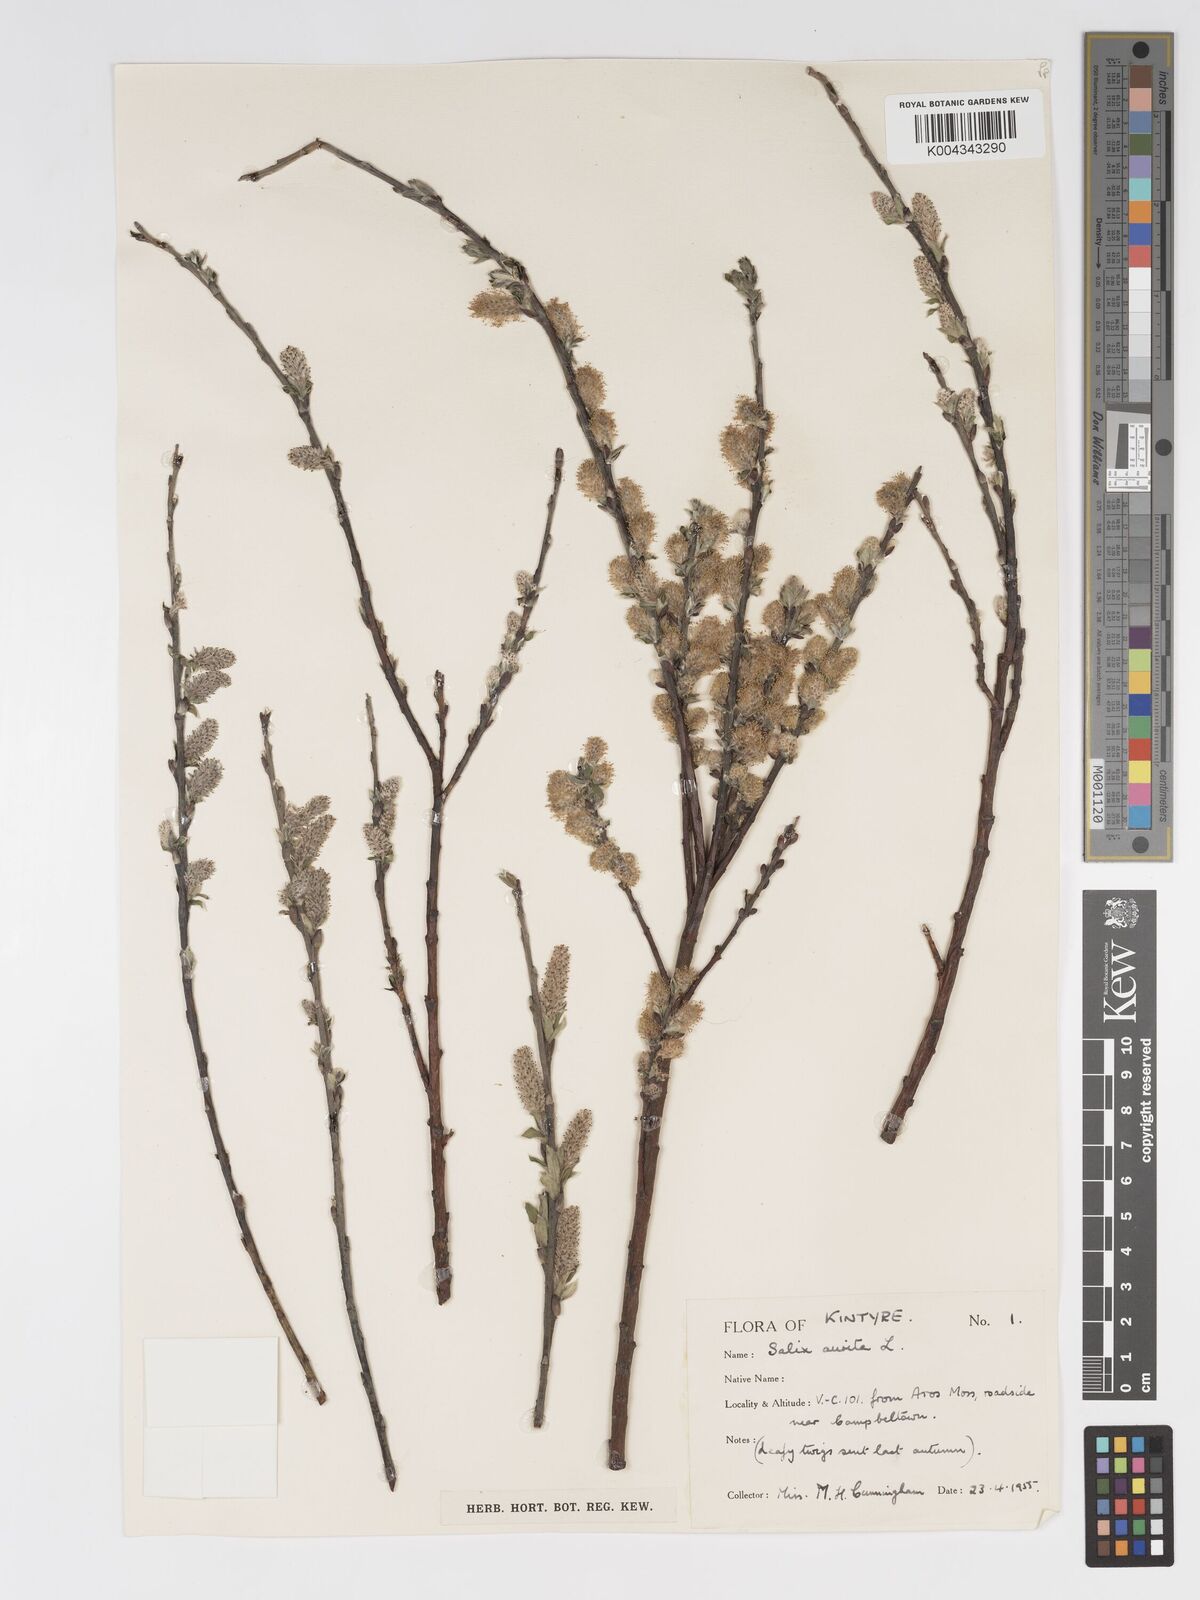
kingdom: Plantae
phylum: Tracheophyta
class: Magnoliopsida
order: Malpighiales
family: Salicaceae
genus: Salix
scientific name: Salix aurita
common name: Eared willow
